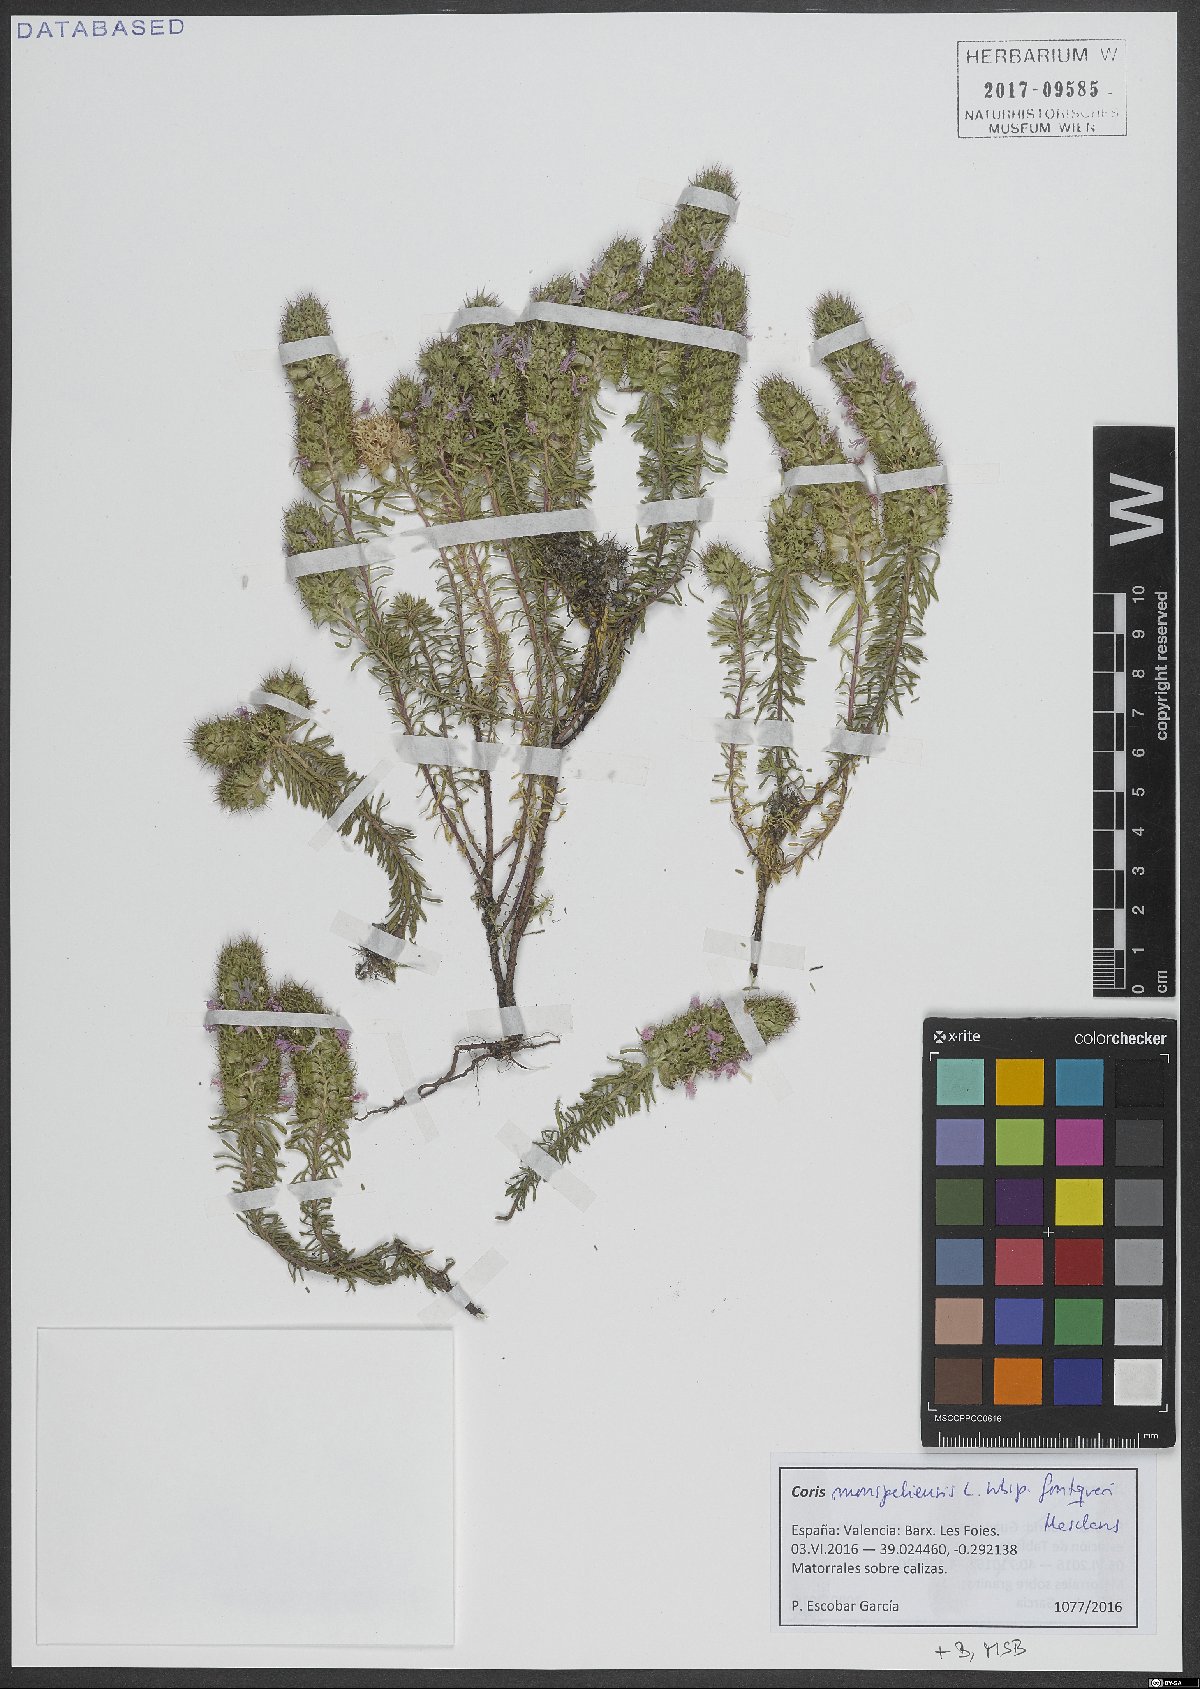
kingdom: Plantae
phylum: Tracheophyta
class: Magnoliopsida
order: Ericales
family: Primulaceae
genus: Coris
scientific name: Coris monspeliensis
